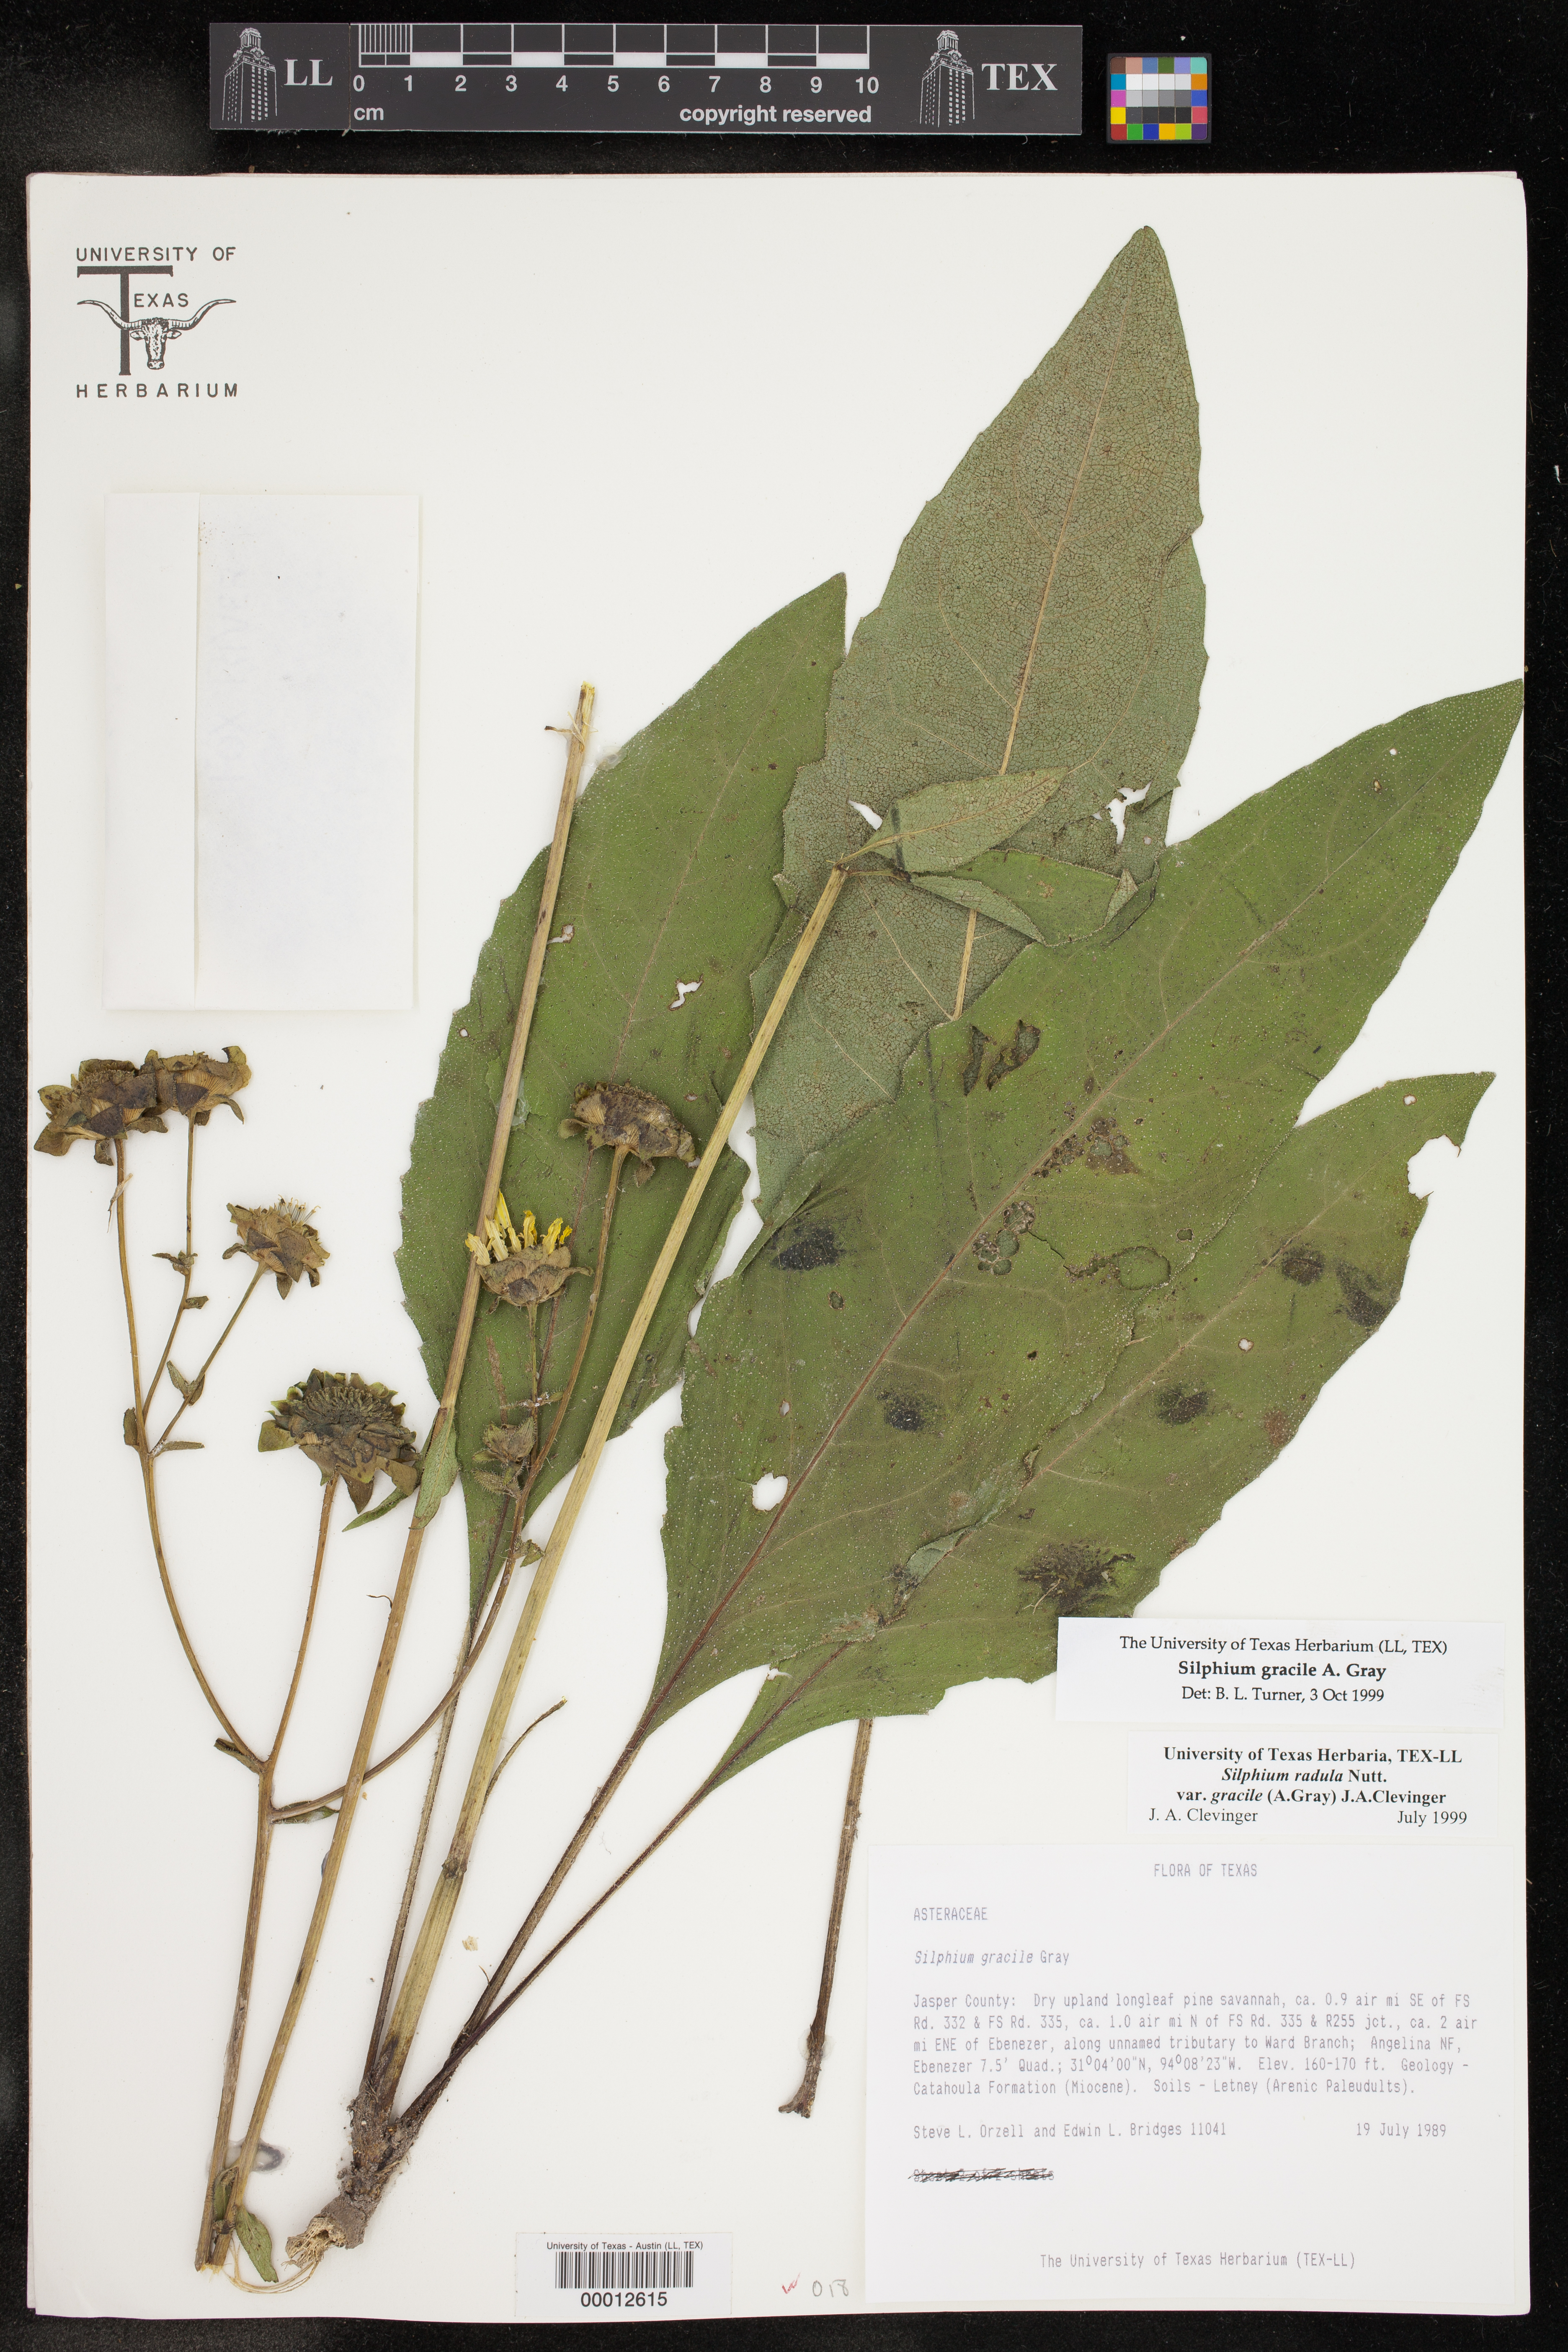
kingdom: Plantae
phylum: Tracheophyta
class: Magnoliopsida
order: Asterales
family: Asteraceae
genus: Silphium
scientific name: Silphium radula
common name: Roughleaf rosinweed
